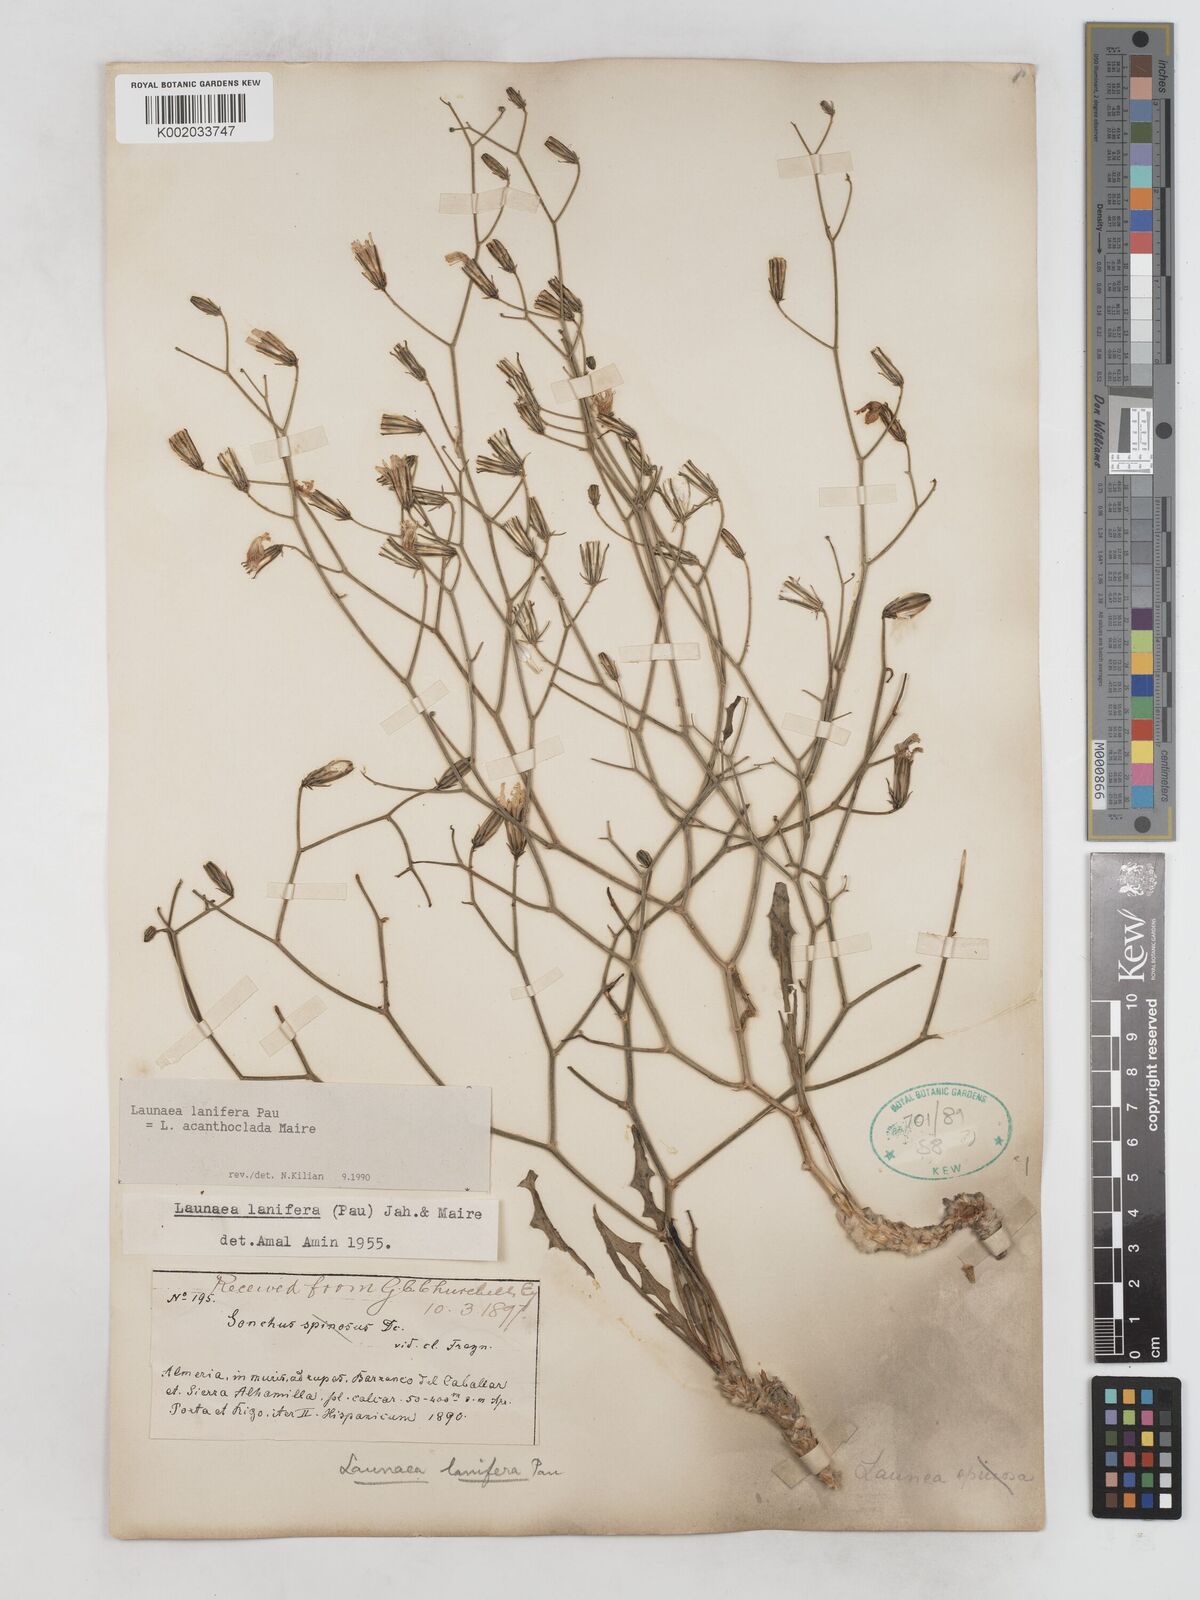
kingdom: Plantae
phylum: Tracheophyta
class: Magnoliopsida
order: Asterales
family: Asteraceae
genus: Launaea
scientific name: Launaea lanifera
